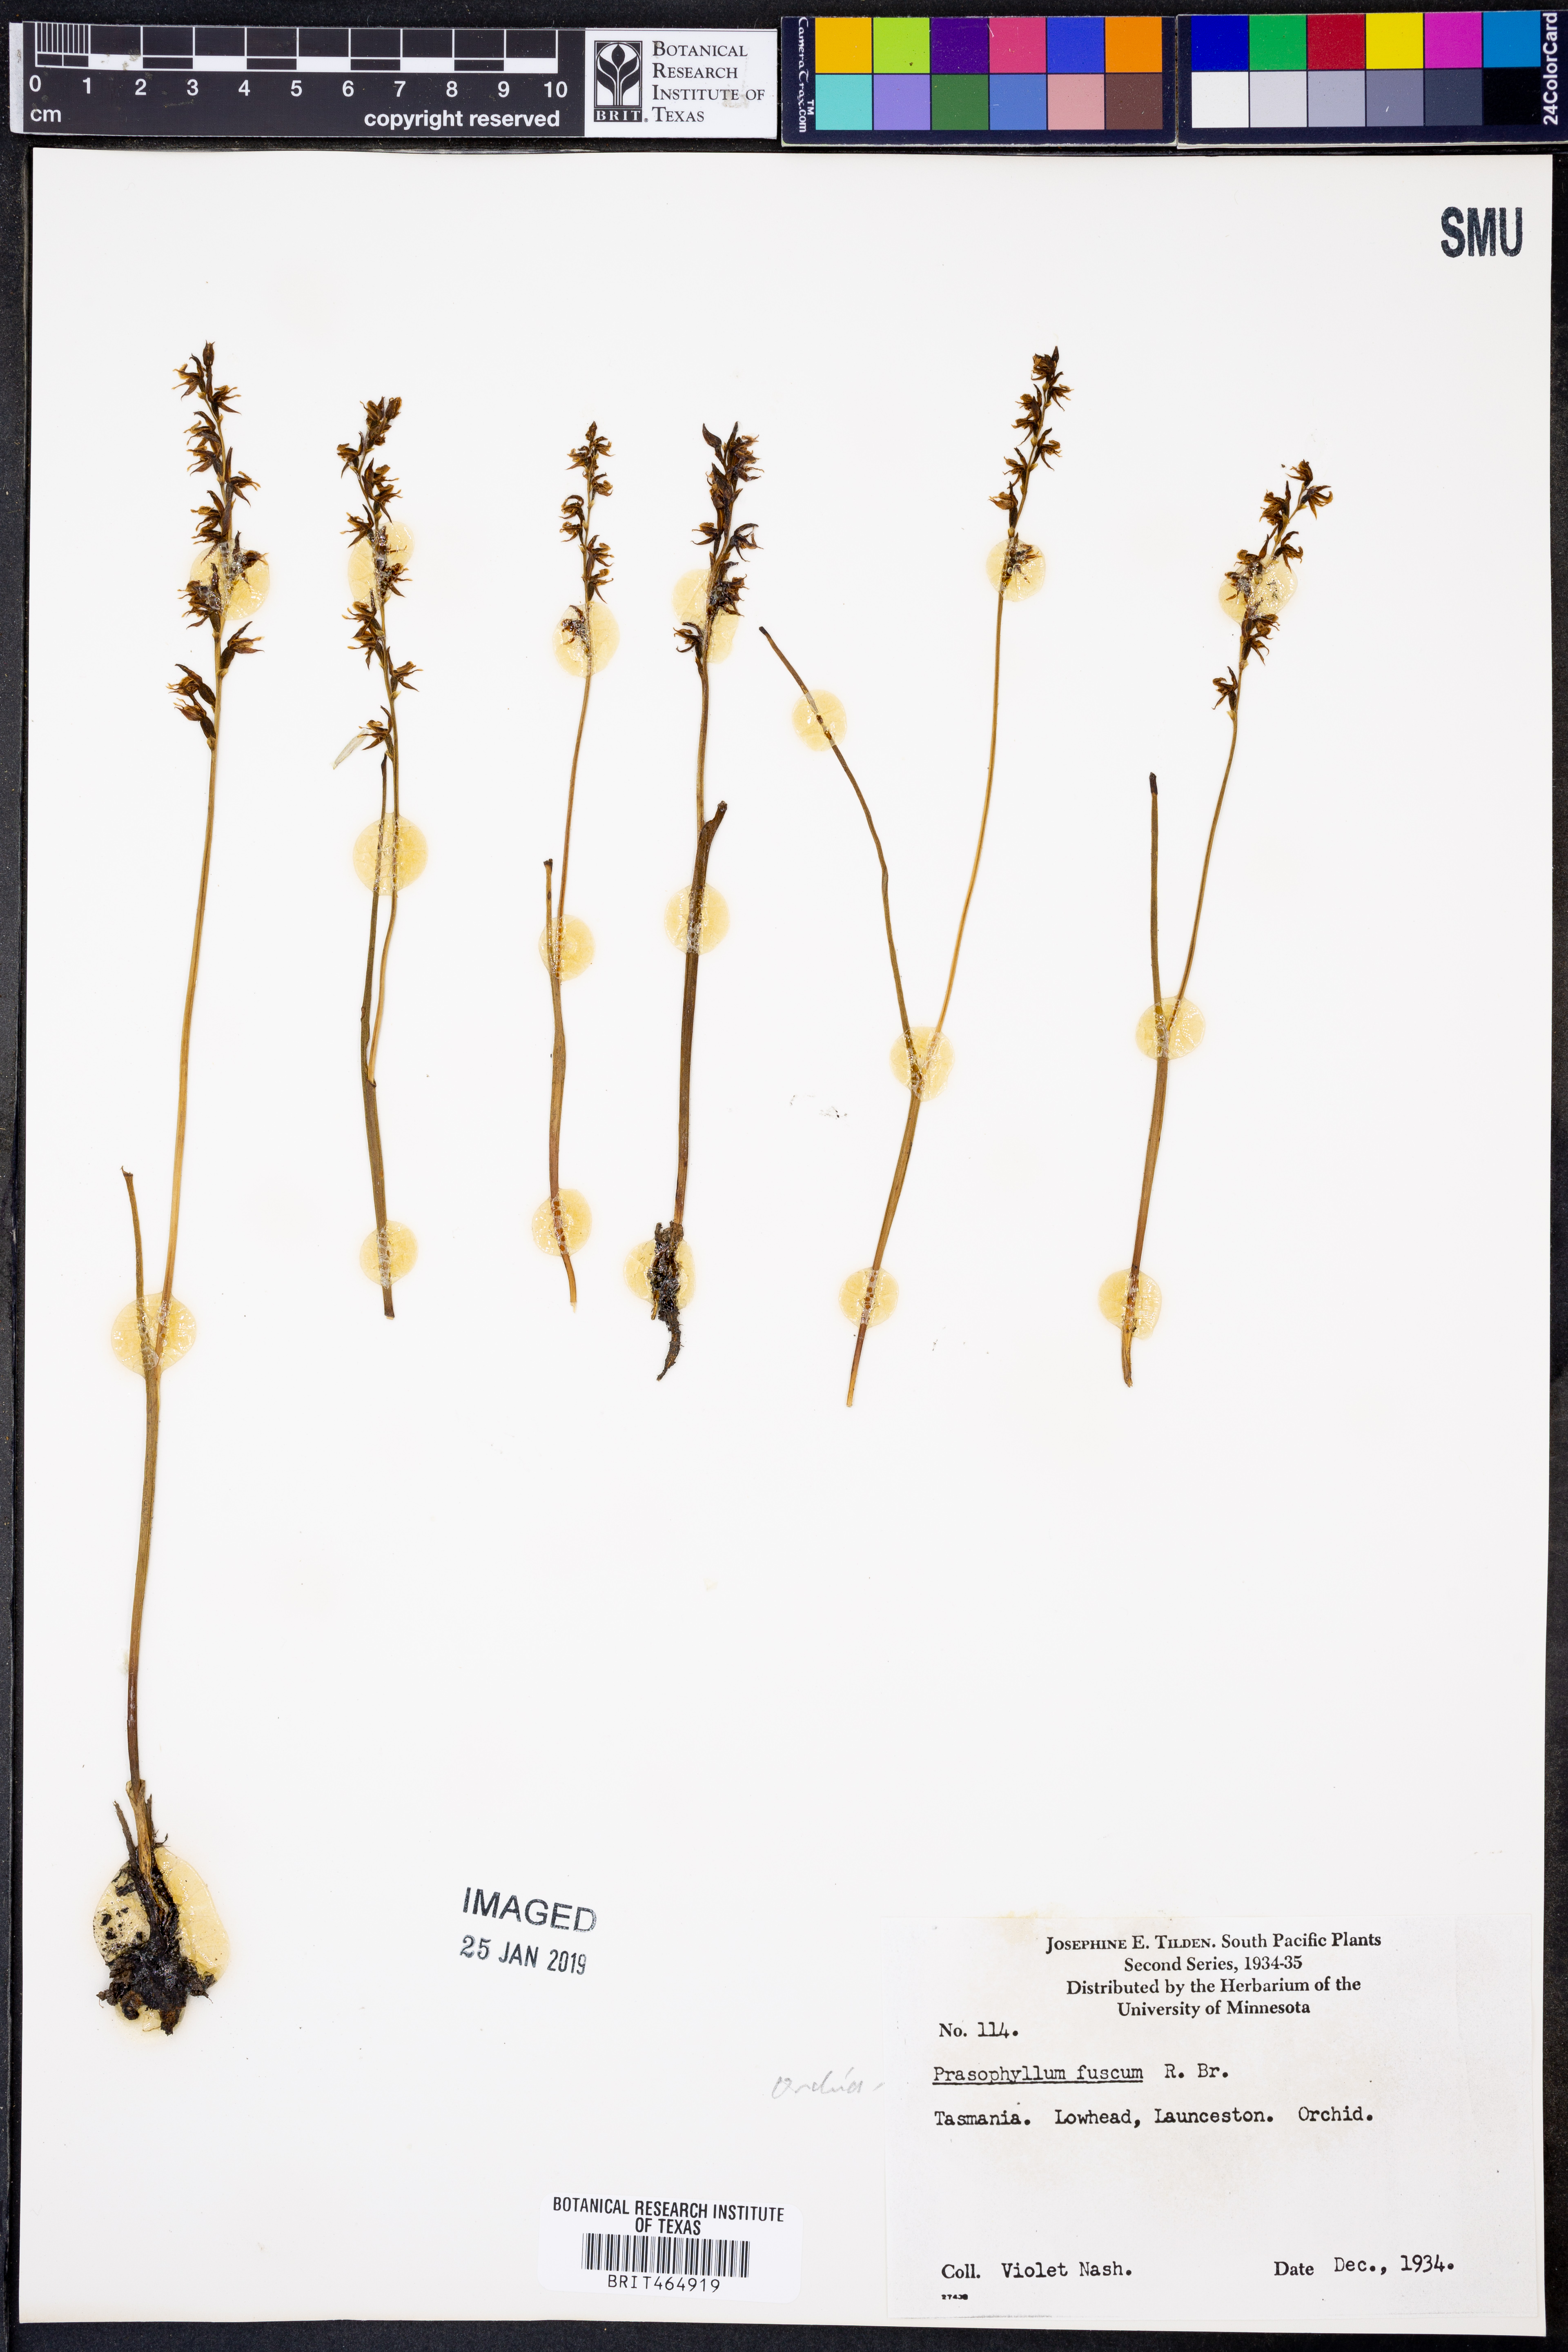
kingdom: Plantae
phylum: Tracheophyta
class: Liliopsida
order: Asparagales
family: Orchidaceae
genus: Prasophyllum
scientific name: Prasophyllum fuscum
